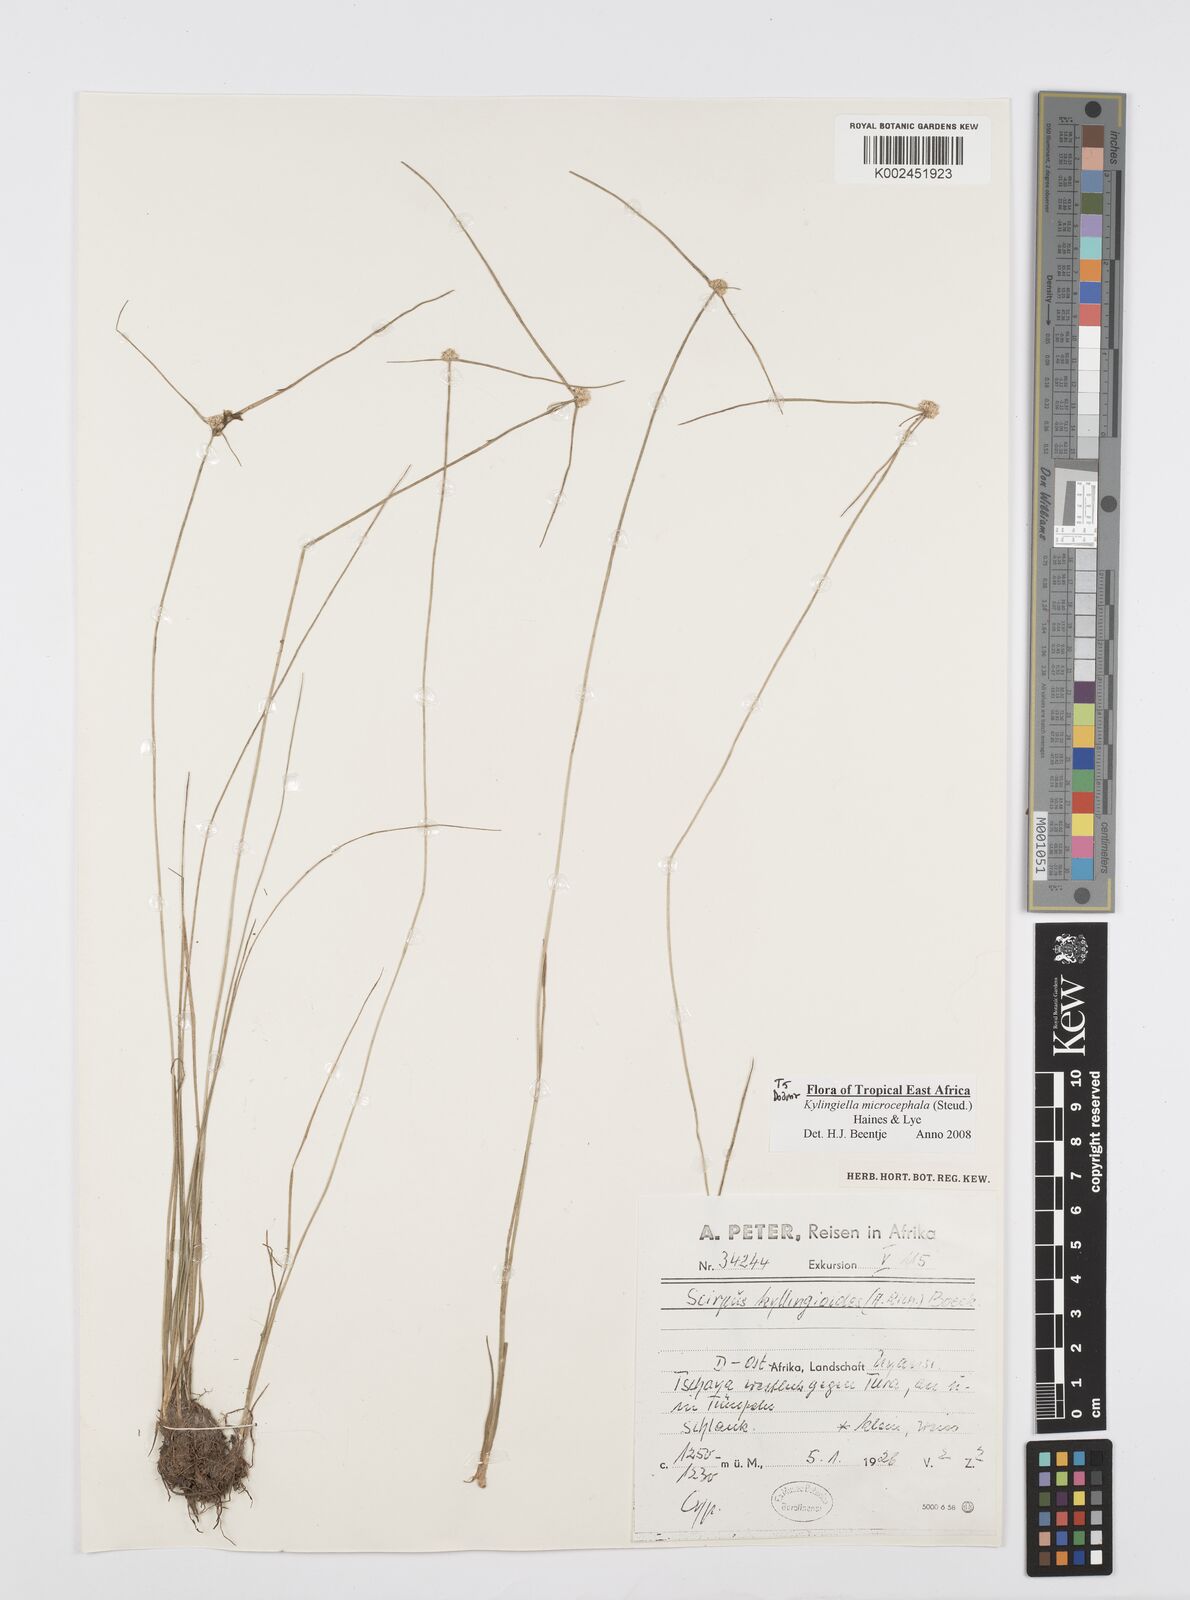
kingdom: Plantae
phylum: Tracheophyta
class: Liliopsida
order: Poales
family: Cyperaceae
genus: Cyperus
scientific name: Cyperus microcephalus
